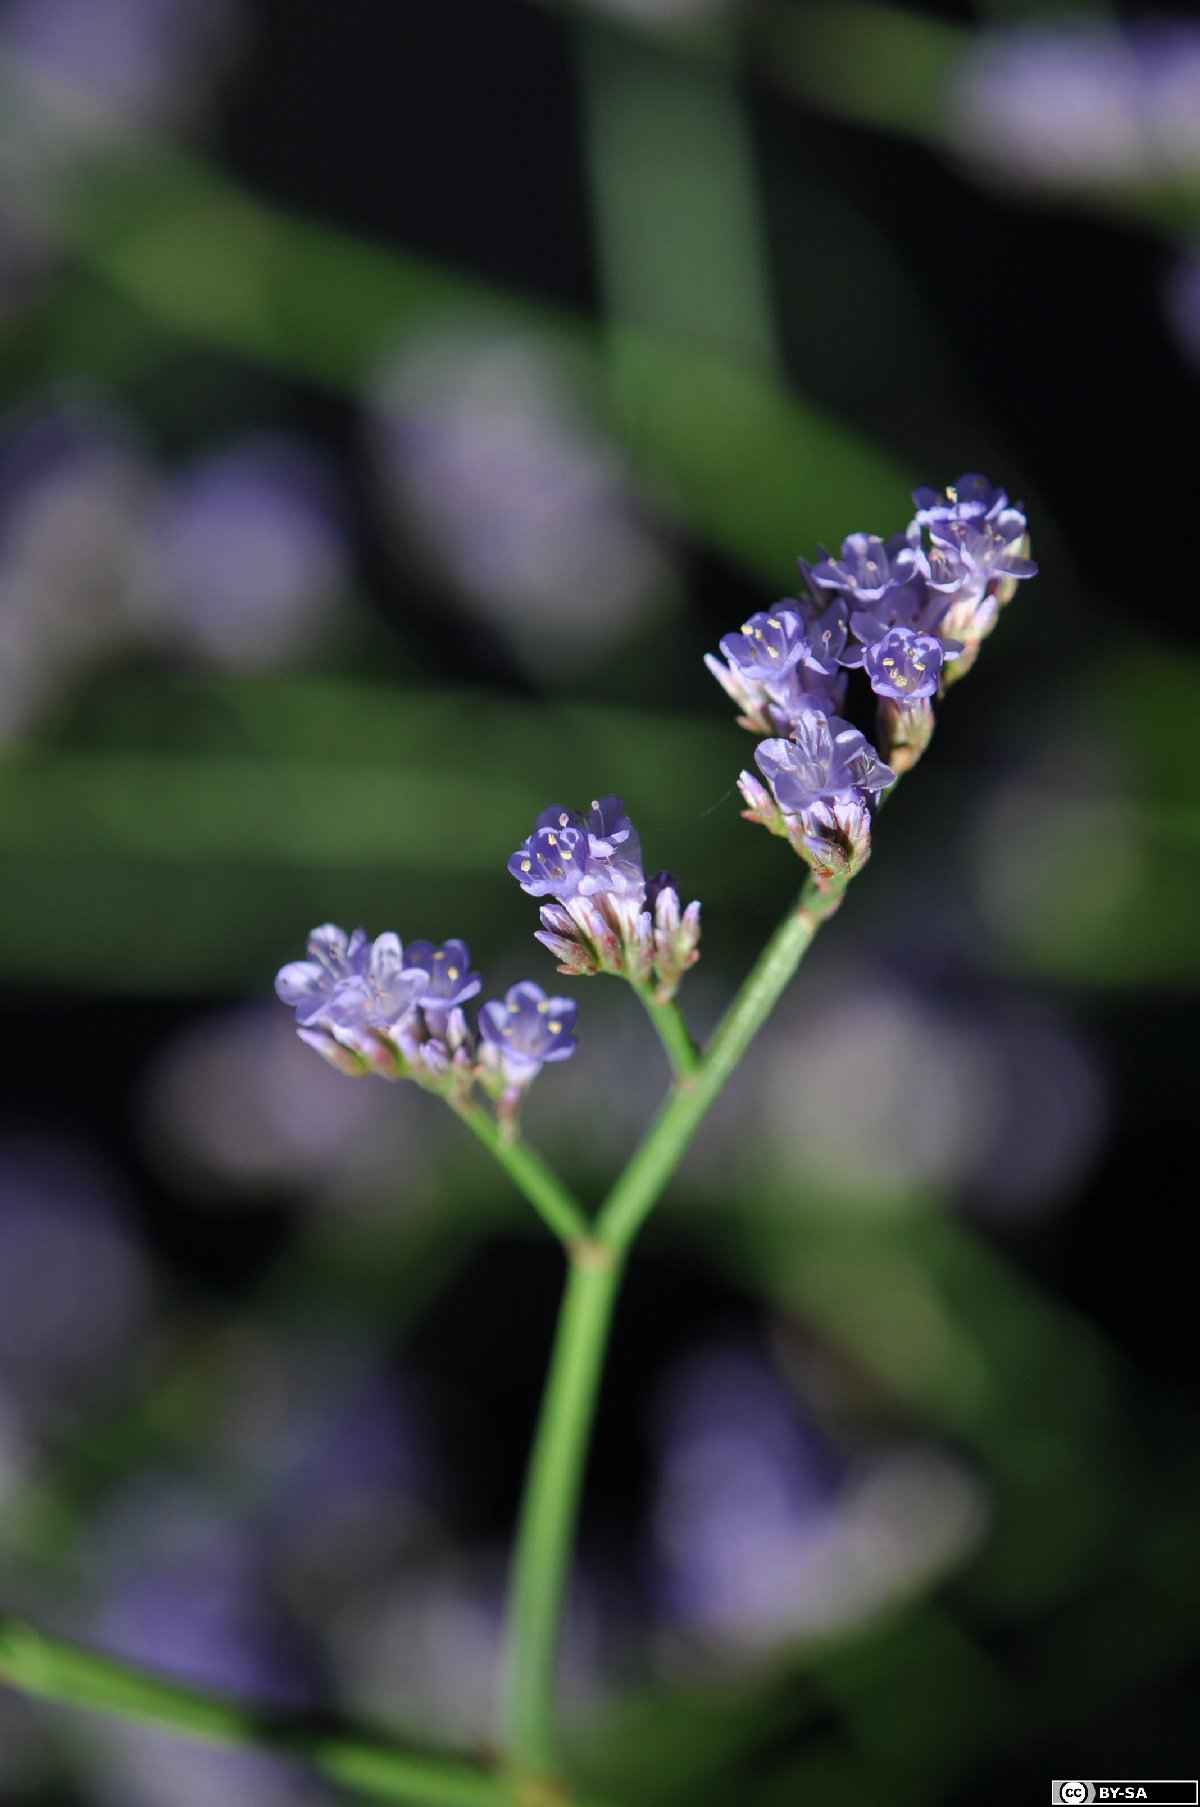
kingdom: Plantae
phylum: Tracheophyta
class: Magnoliopsida
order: Caryophyllales
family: Plumbaginaceae
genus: Limonium
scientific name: Limonium gmelini
